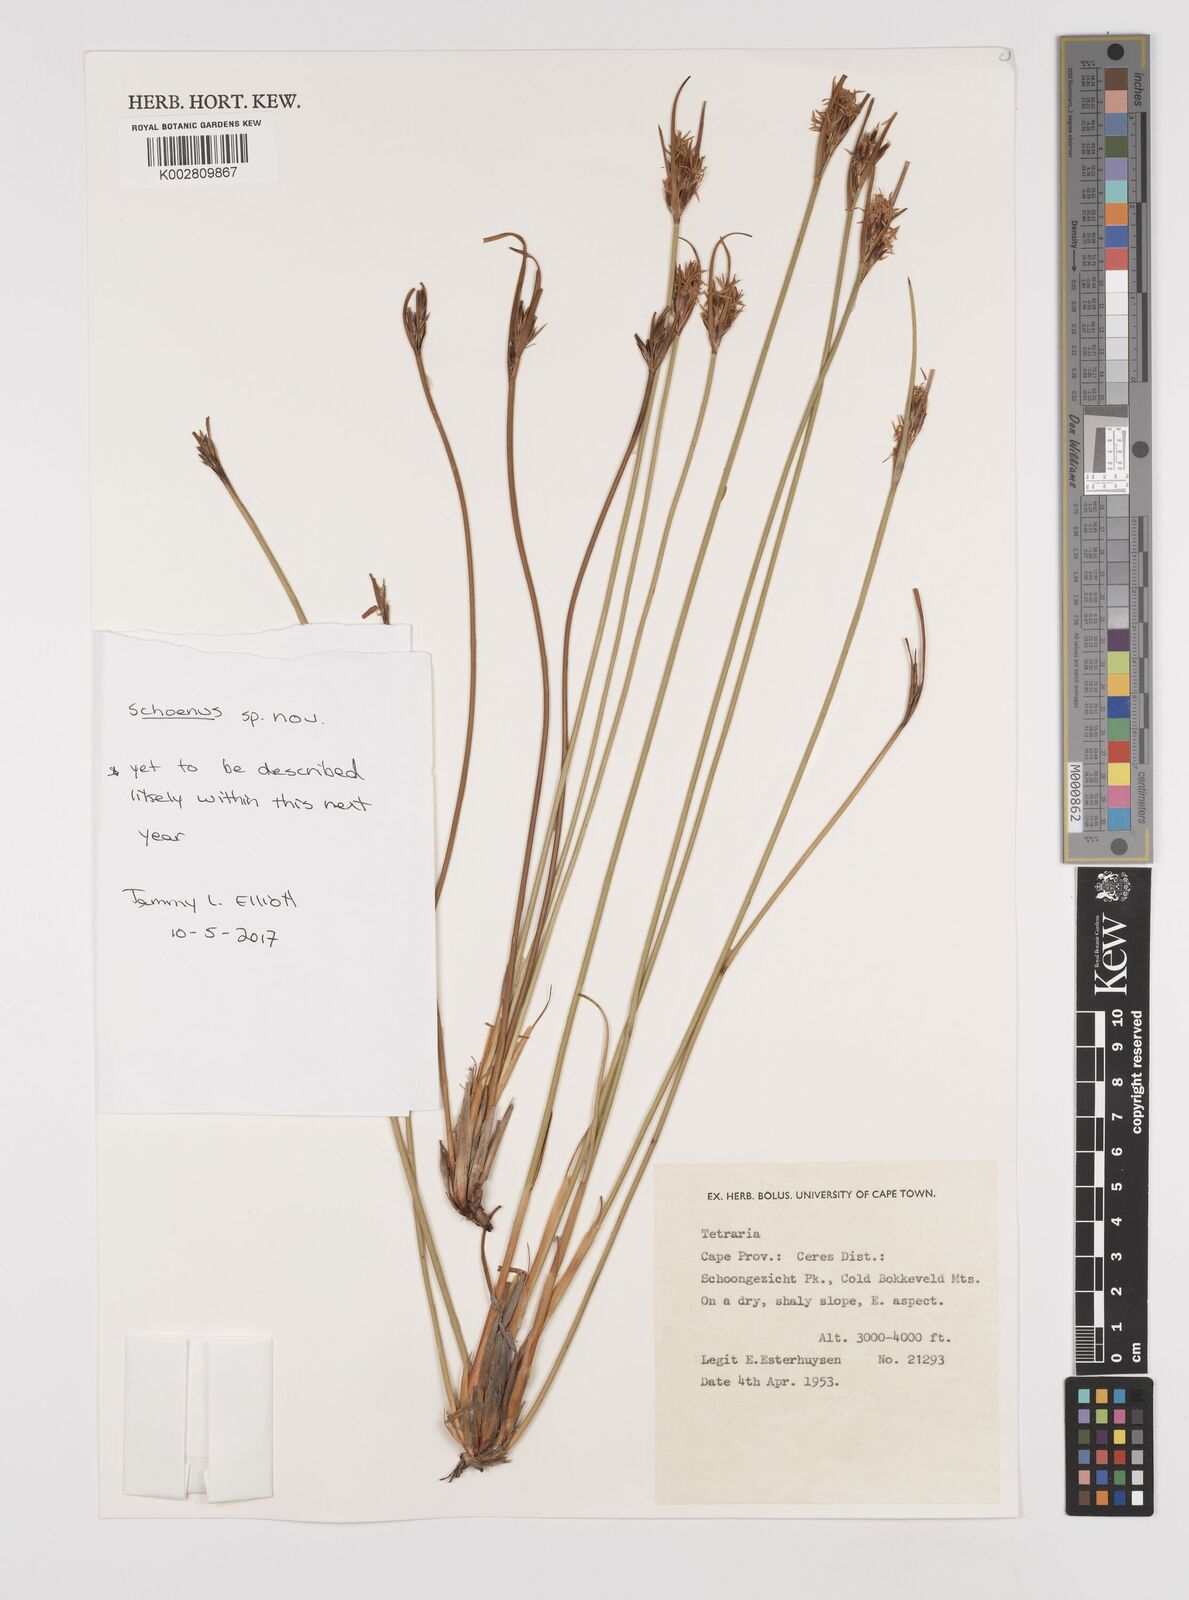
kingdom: Plantae
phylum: Tracheophyta
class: Liliopsida
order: Poales
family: Cyperaceae
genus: Schoenus
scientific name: Schoenus
